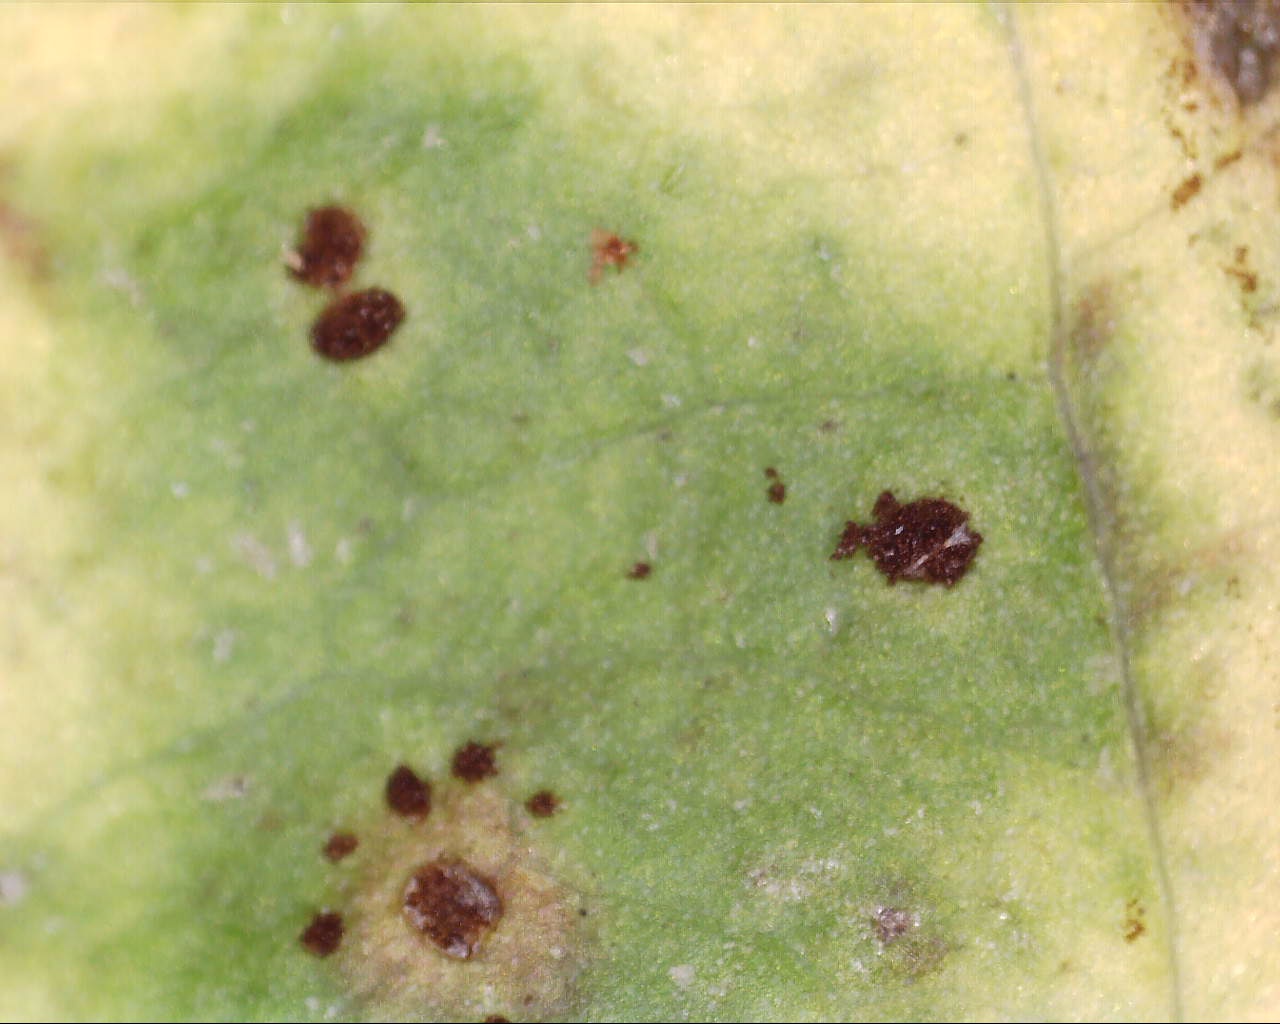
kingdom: Fungi
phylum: Basidiomycota
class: Pucciniomycetes
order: Pucciniales
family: Pucciniaceae
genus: Puccinia
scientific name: Puccinia hieracii
